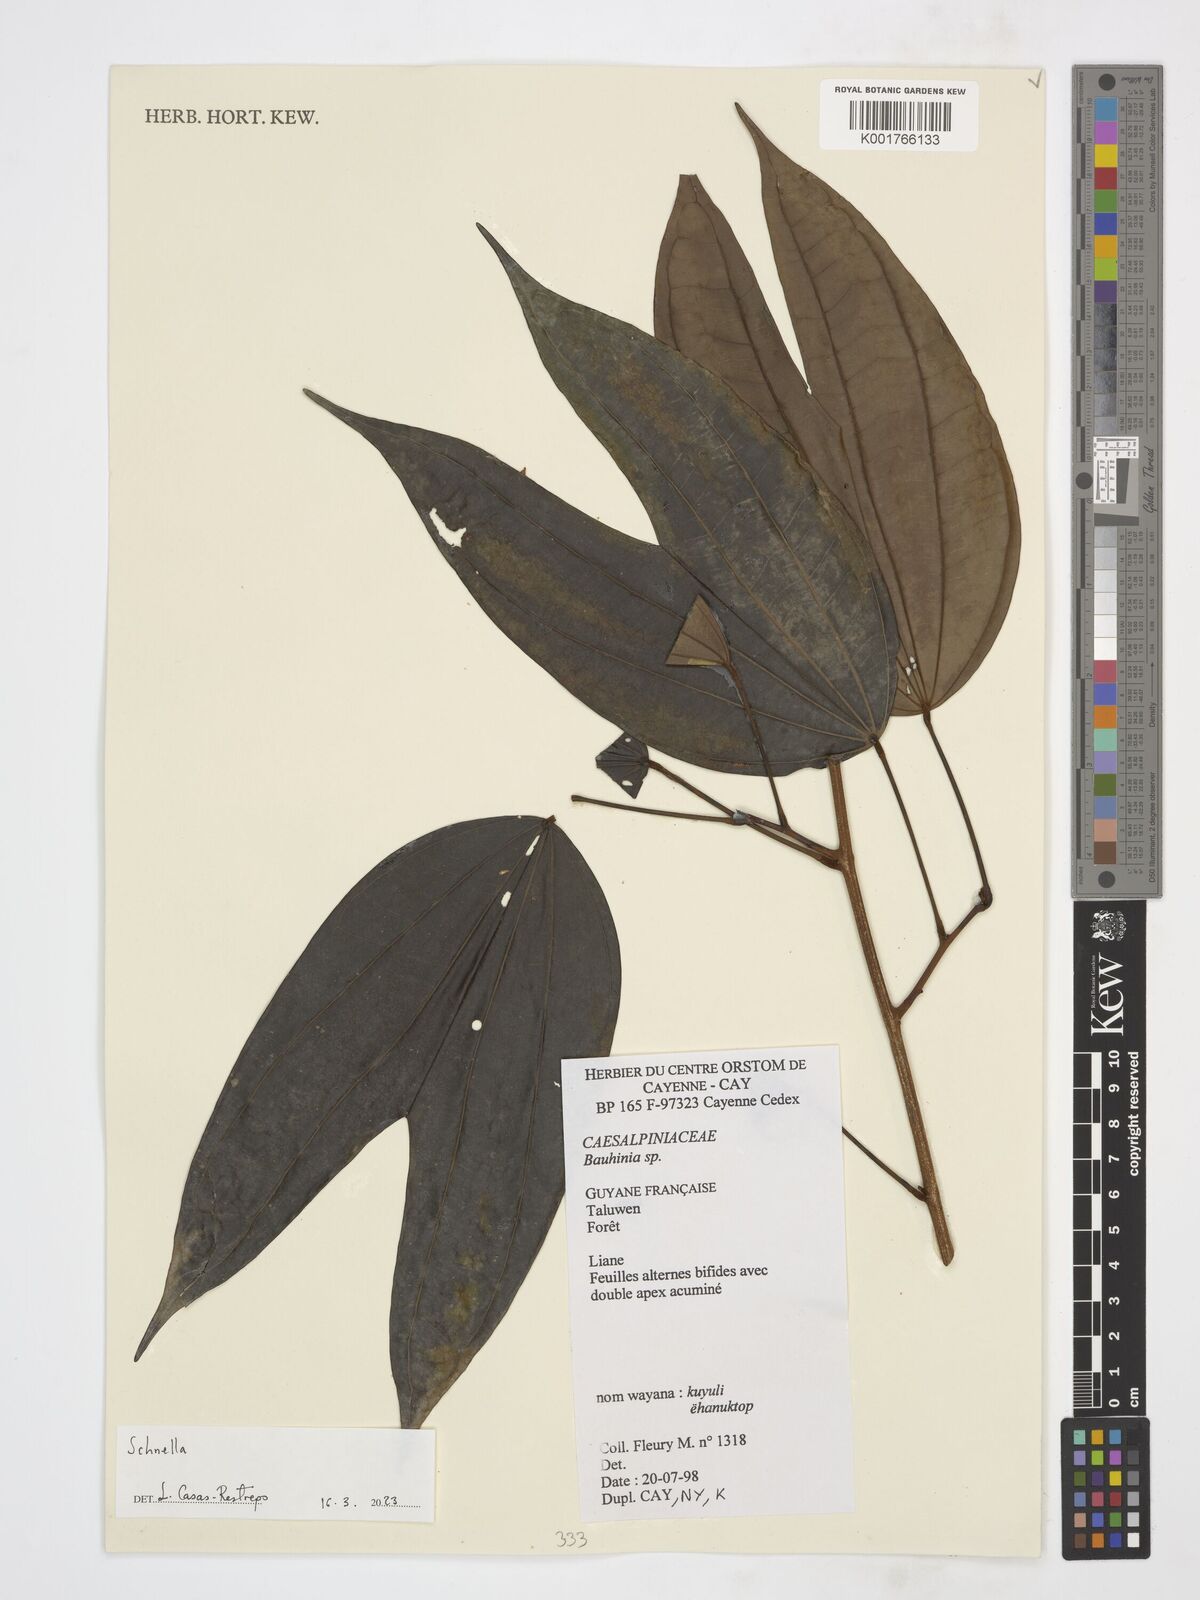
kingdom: Plantae
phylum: Tracheophyta
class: Magnoliopsida
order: Fabales
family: Fabaceae
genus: Schnella
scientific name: Schnella
